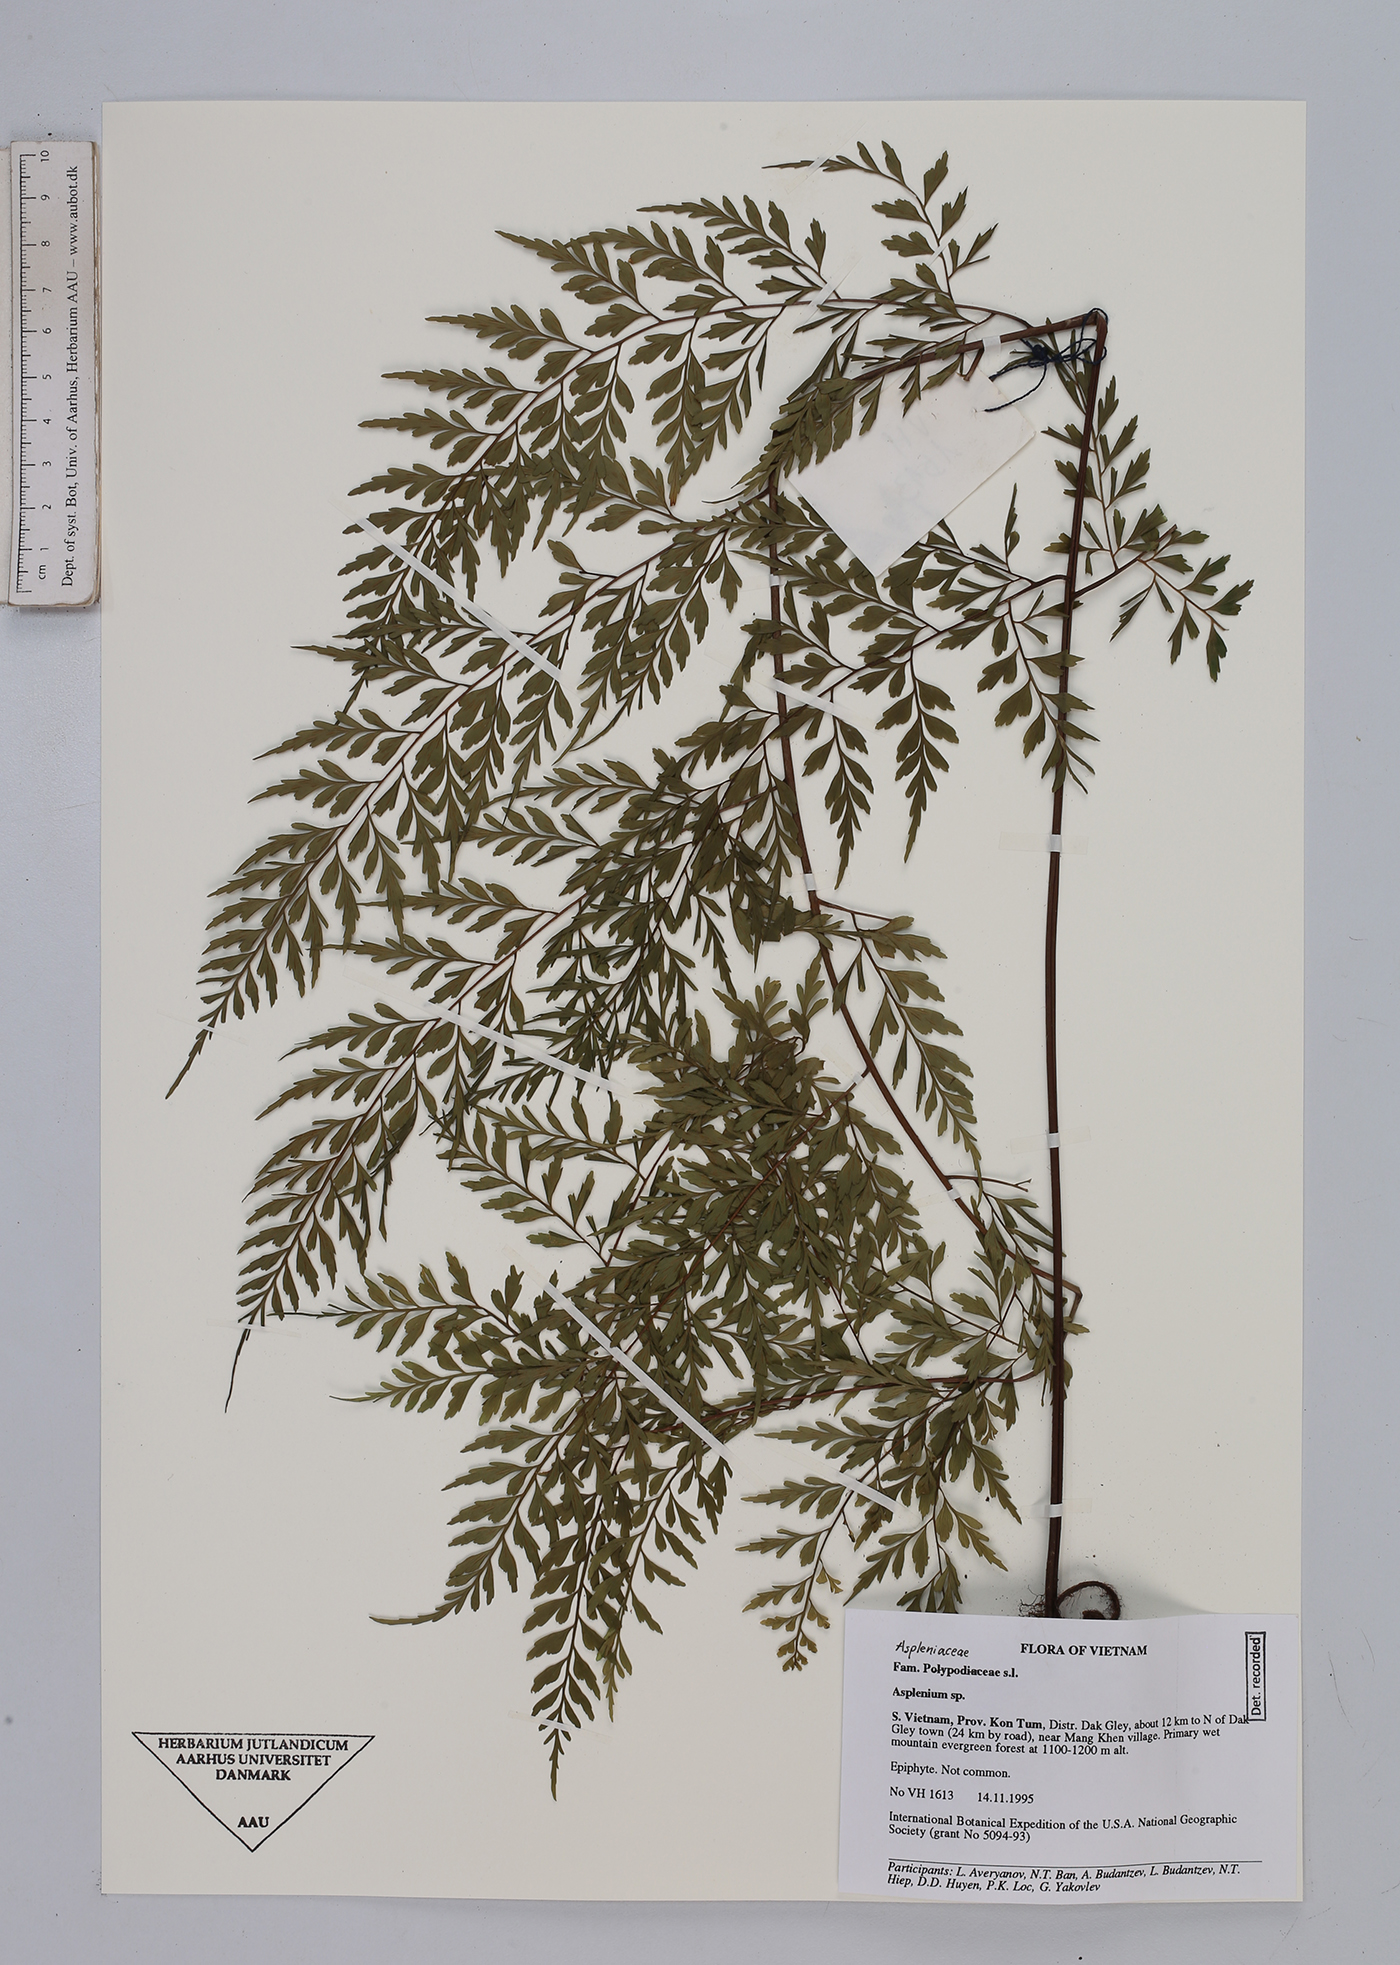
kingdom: Plantae
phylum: Tracheophyta
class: Polypodiopsida
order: Polypodiales
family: Aspleniaceae
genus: Asplenium
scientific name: Asplenium
